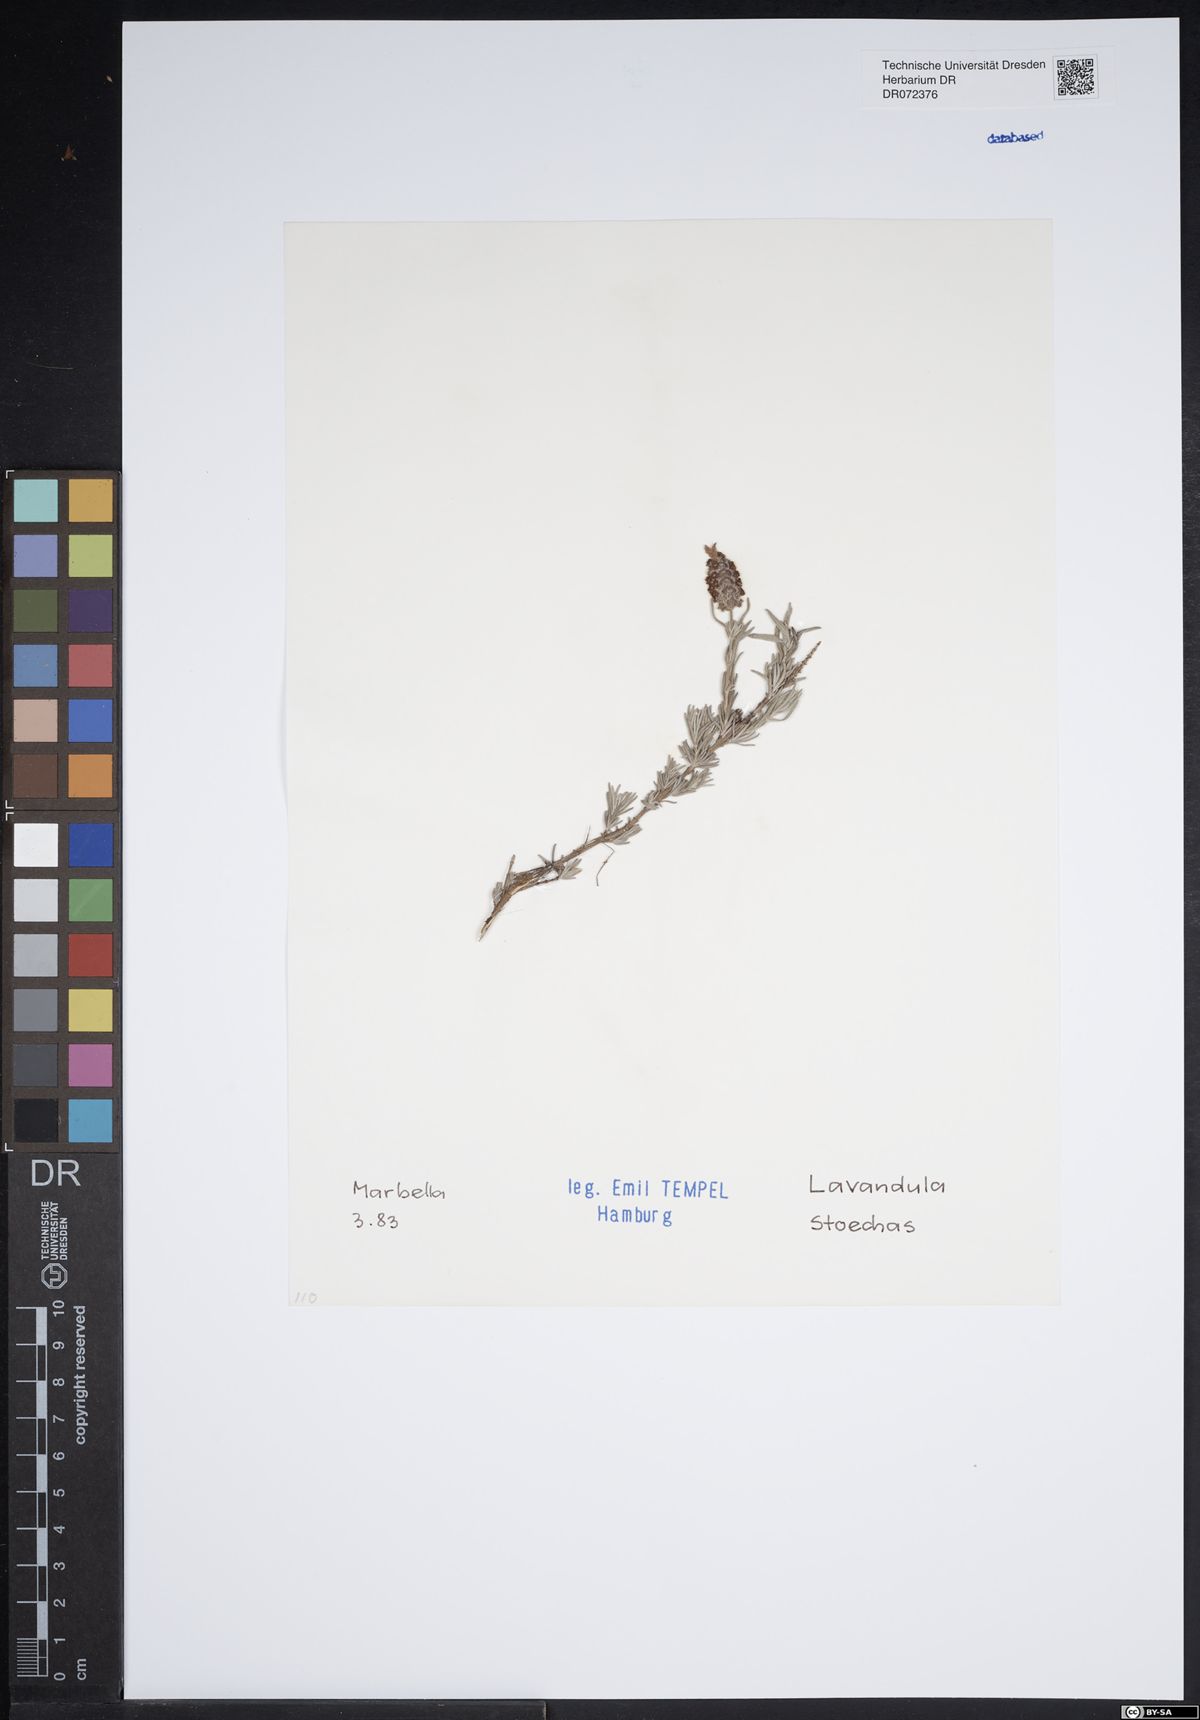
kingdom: Plantae
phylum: Tracheophyta
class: Magnoliopsida
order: Lamiales
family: Lamiaceae
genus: Lavandula
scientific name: Lavandula stoechas
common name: French lavender
